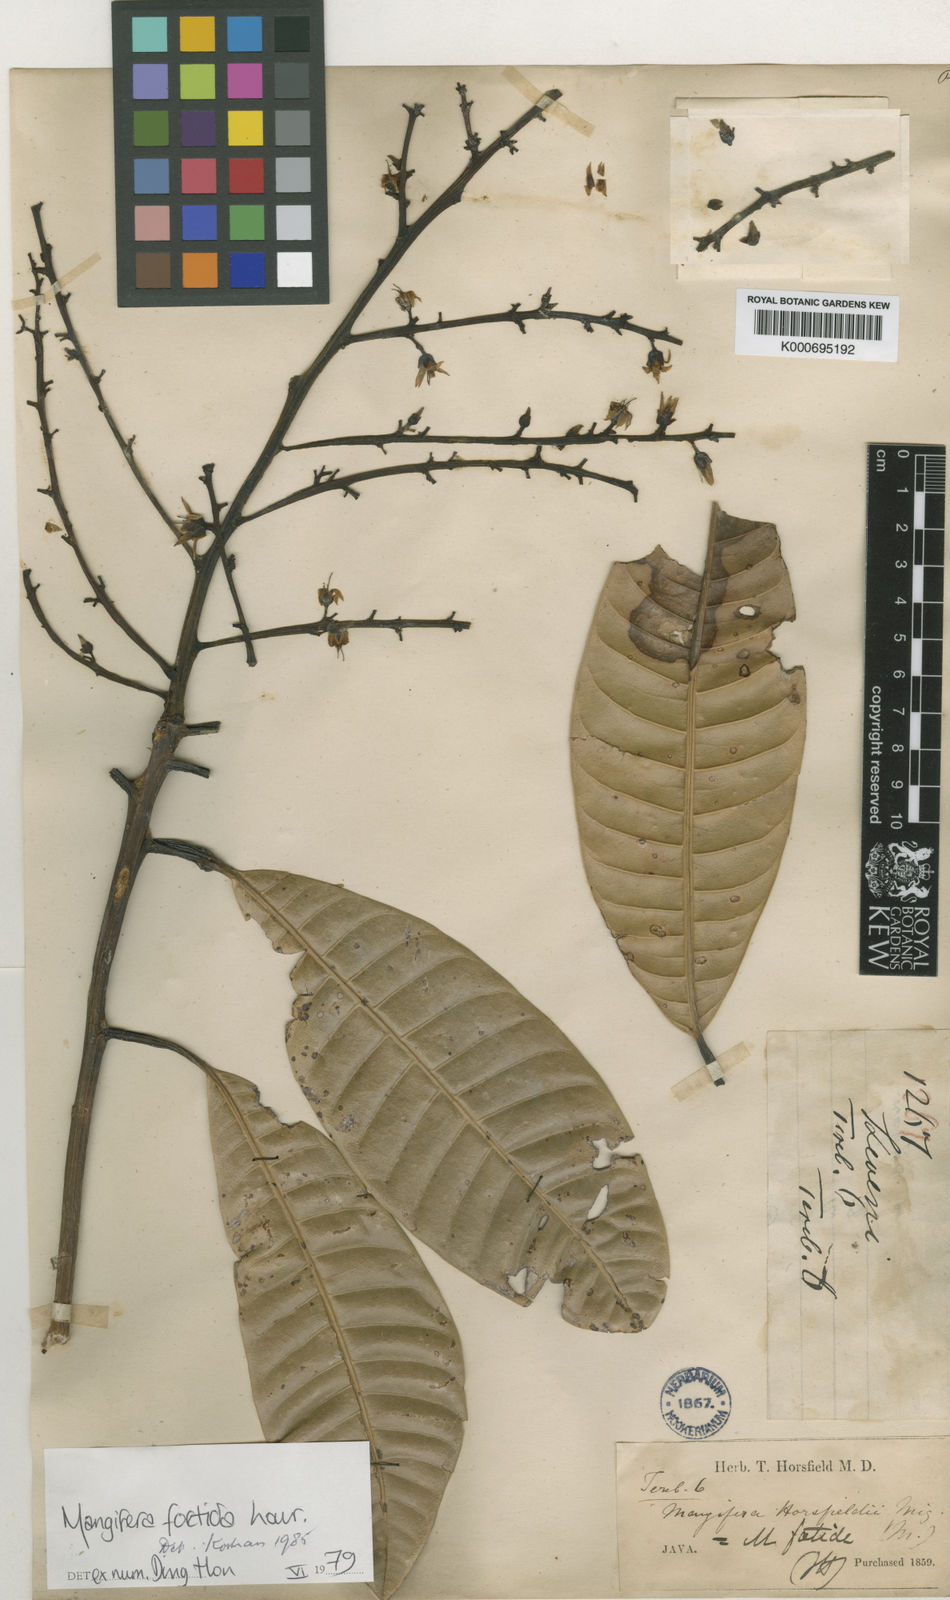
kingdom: Plantae
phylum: Tracheophyta
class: Magnoliopsida
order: Sapindales
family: Anacardiaceae
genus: Mangifera
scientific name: Mangifera foetida
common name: Horse mango
